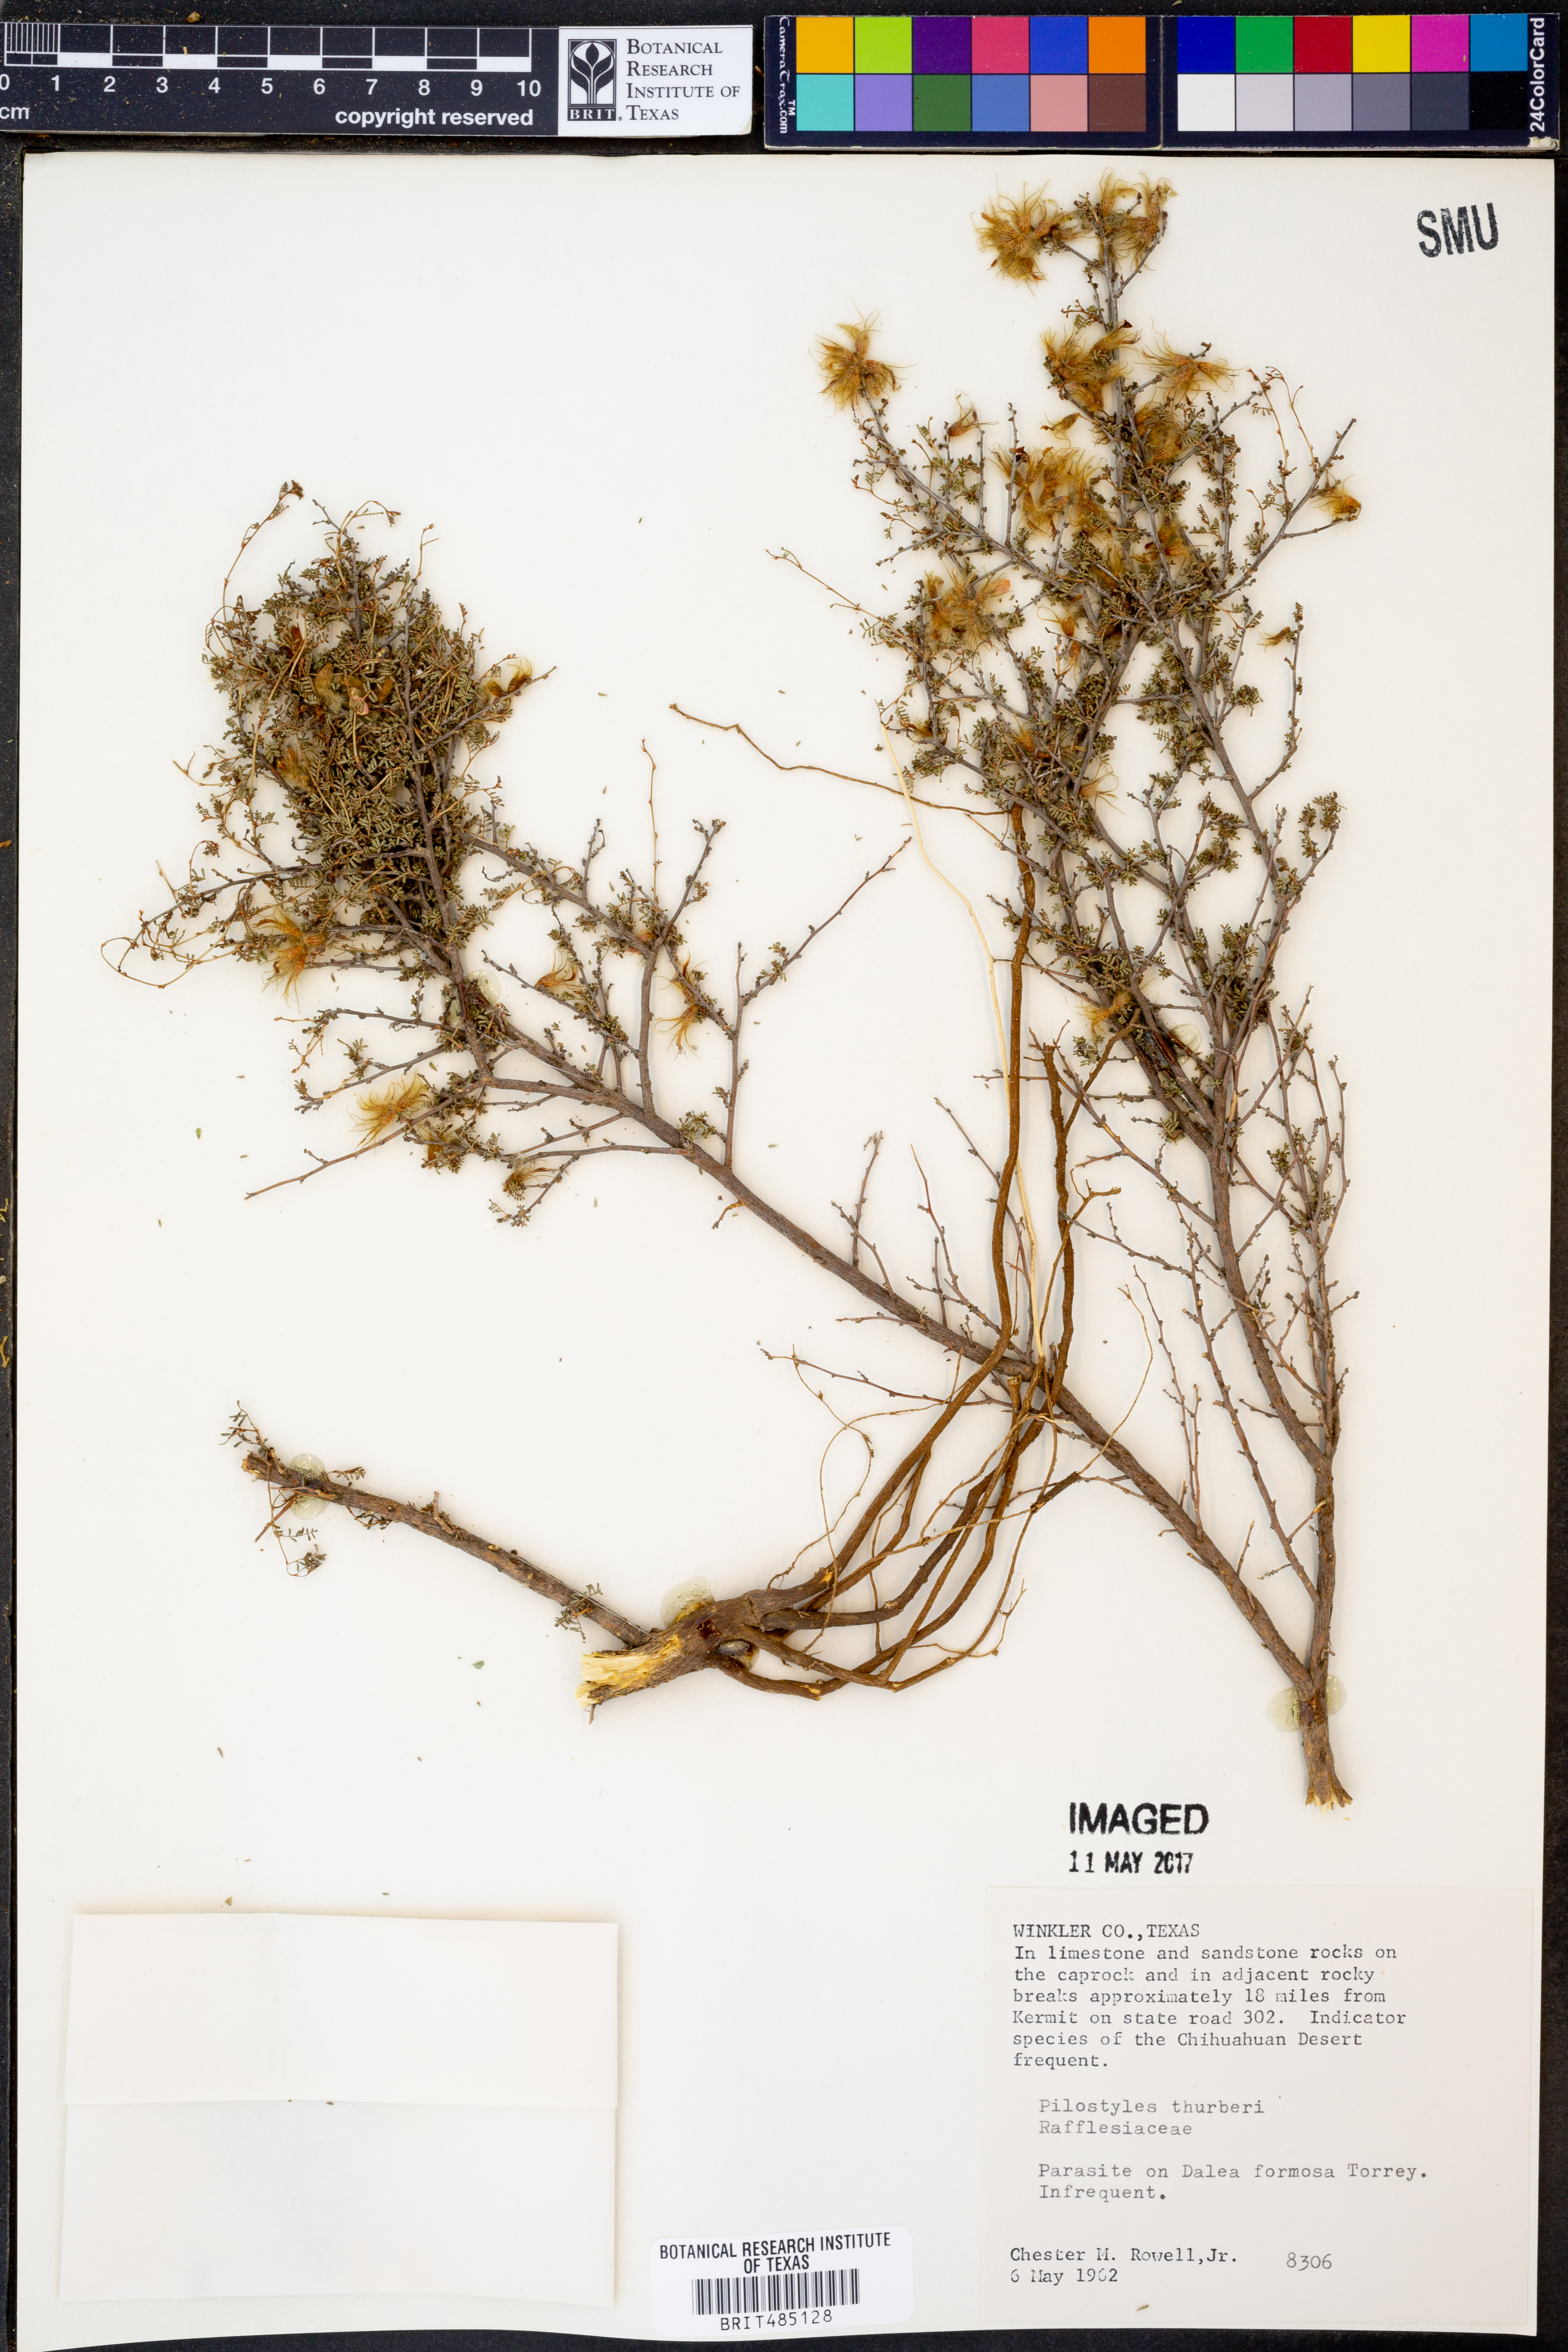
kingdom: Plantae
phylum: Tracheophyta
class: Magnoliopsida
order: Cucurbitales
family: Apodanthaceae
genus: Pilostyles
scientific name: Pilostyles thurberi
